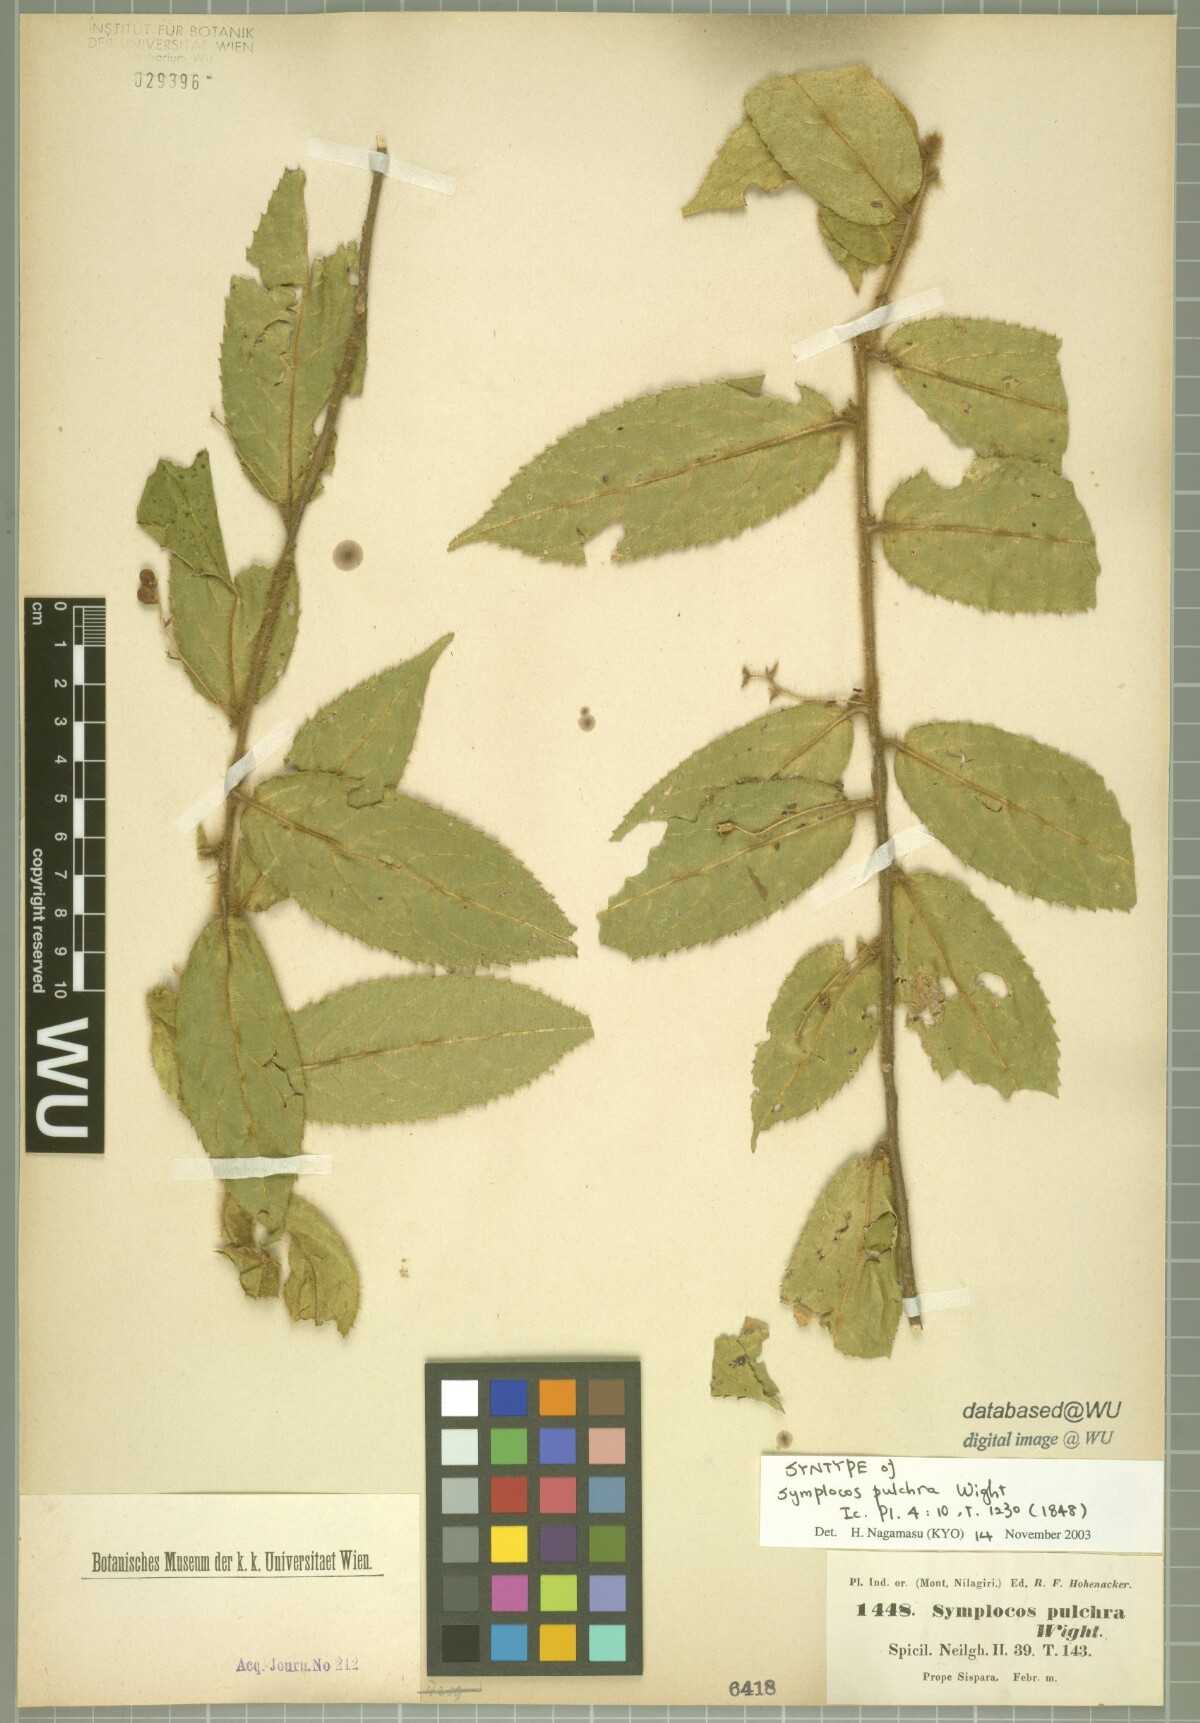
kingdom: Plantae
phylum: Tracheophyta
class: Magnoliopsida
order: Ericales
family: Symplocaceae
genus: Symplocos
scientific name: Symplocos pulchra
